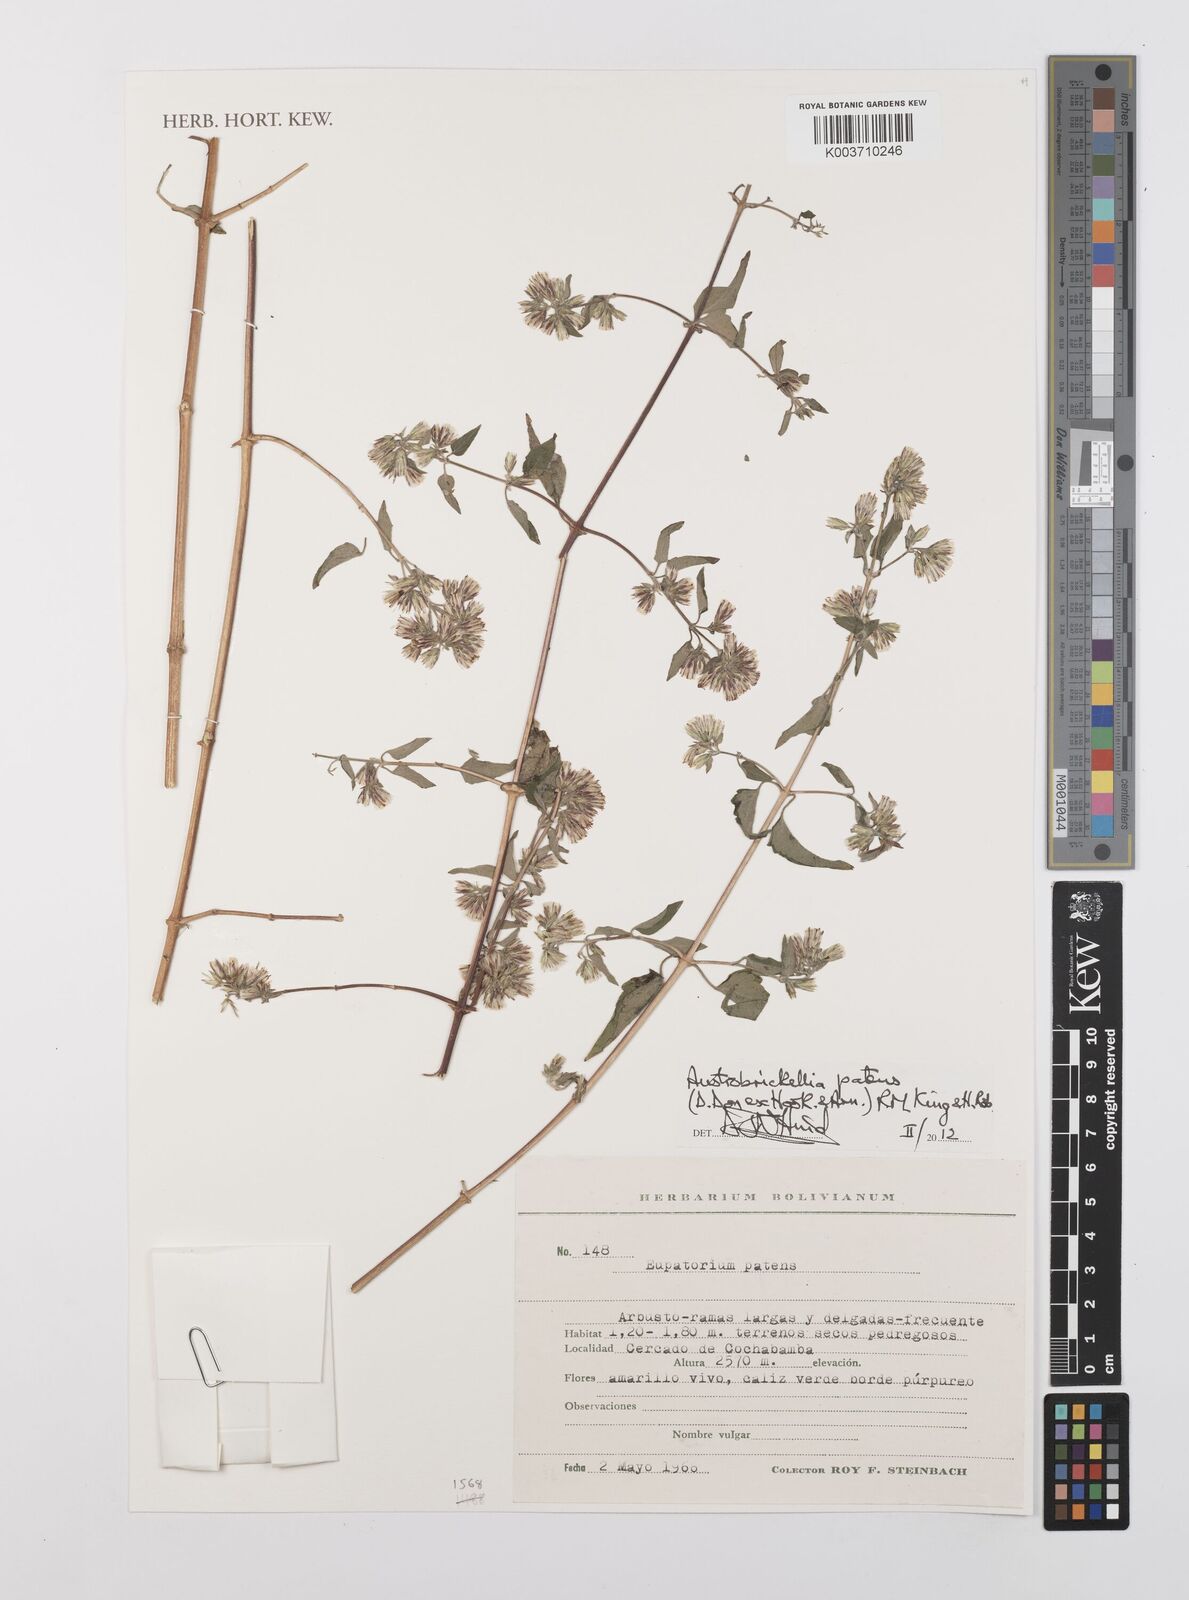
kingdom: Plantae
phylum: Tracheophyta
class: Magnoliopsida
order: Asterales
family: Asteraceae
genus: Austrobrickellia
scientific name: Austrobrickellia patens
